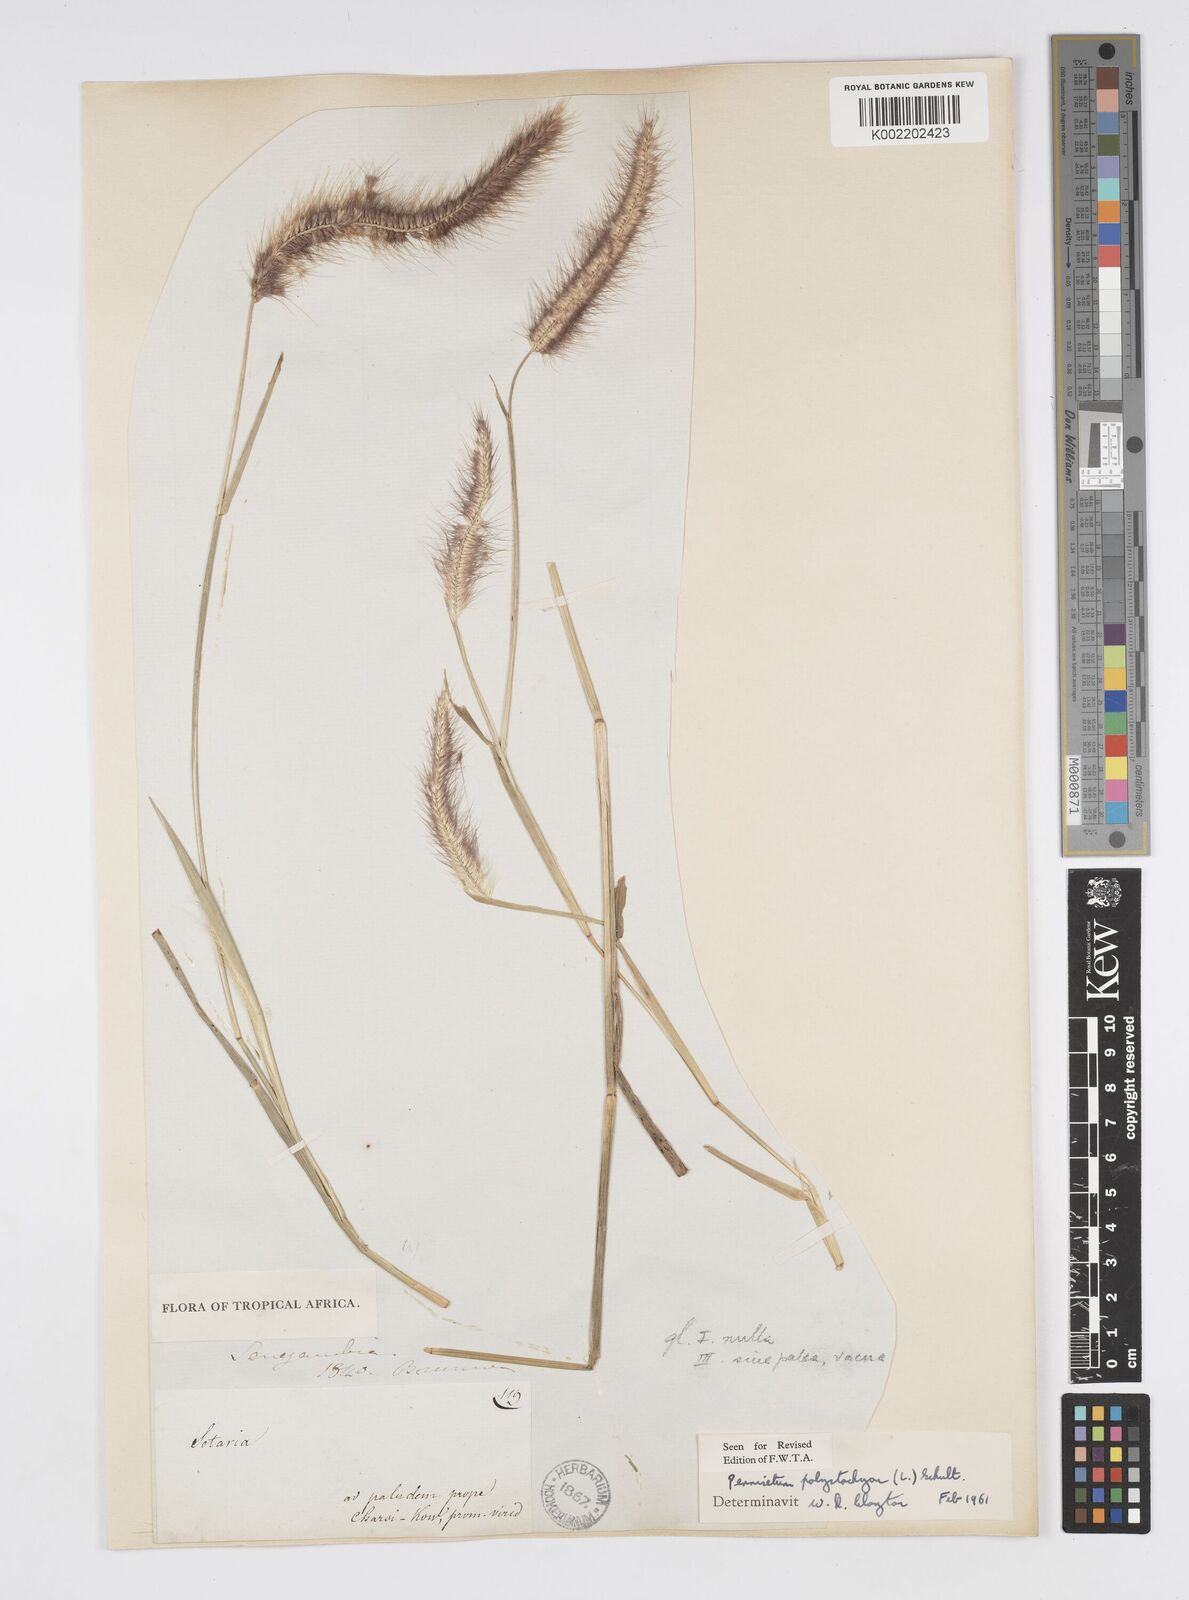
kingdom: Plantae
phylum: Tracheophyta
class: Liliopsida
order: Poales
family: Poaceae
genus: Setaria
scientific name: Setaria parviflora
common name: Knotroot bristle-grass
